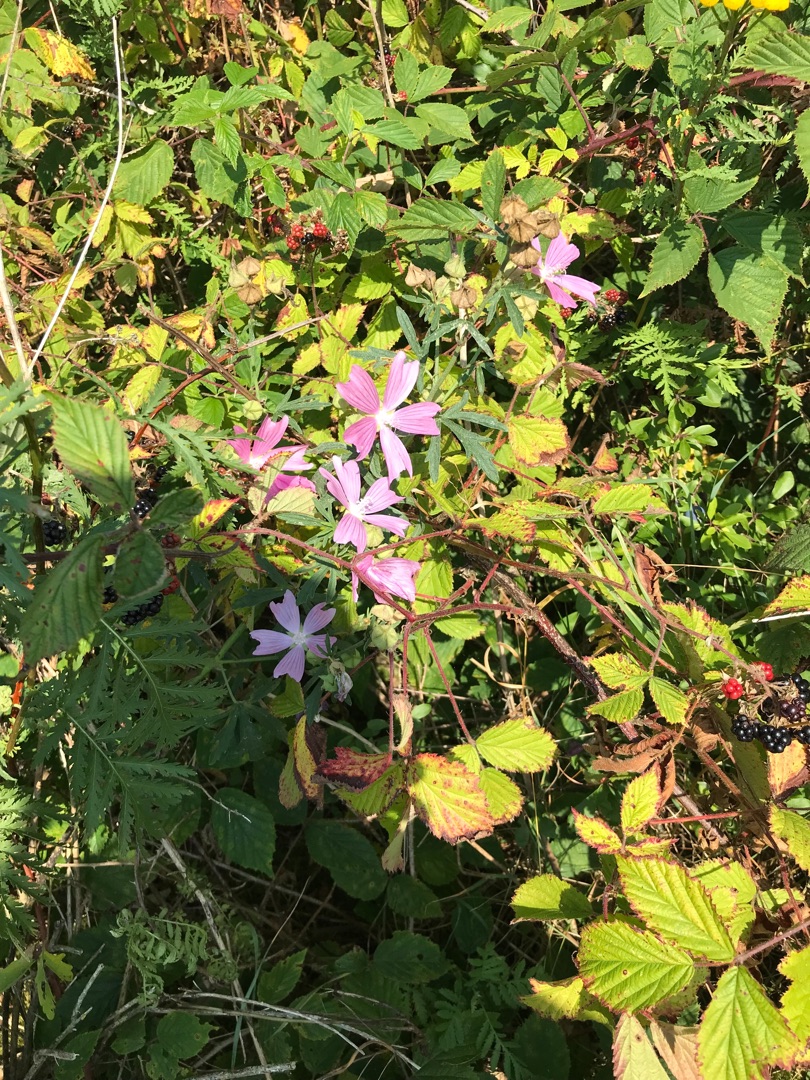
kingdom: Plantae
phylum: Tracheophyta
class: Magnoliopsida
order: Malvales
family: Malvaceae
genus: Malva
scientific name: Malva alcea
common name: Rosen-katost
